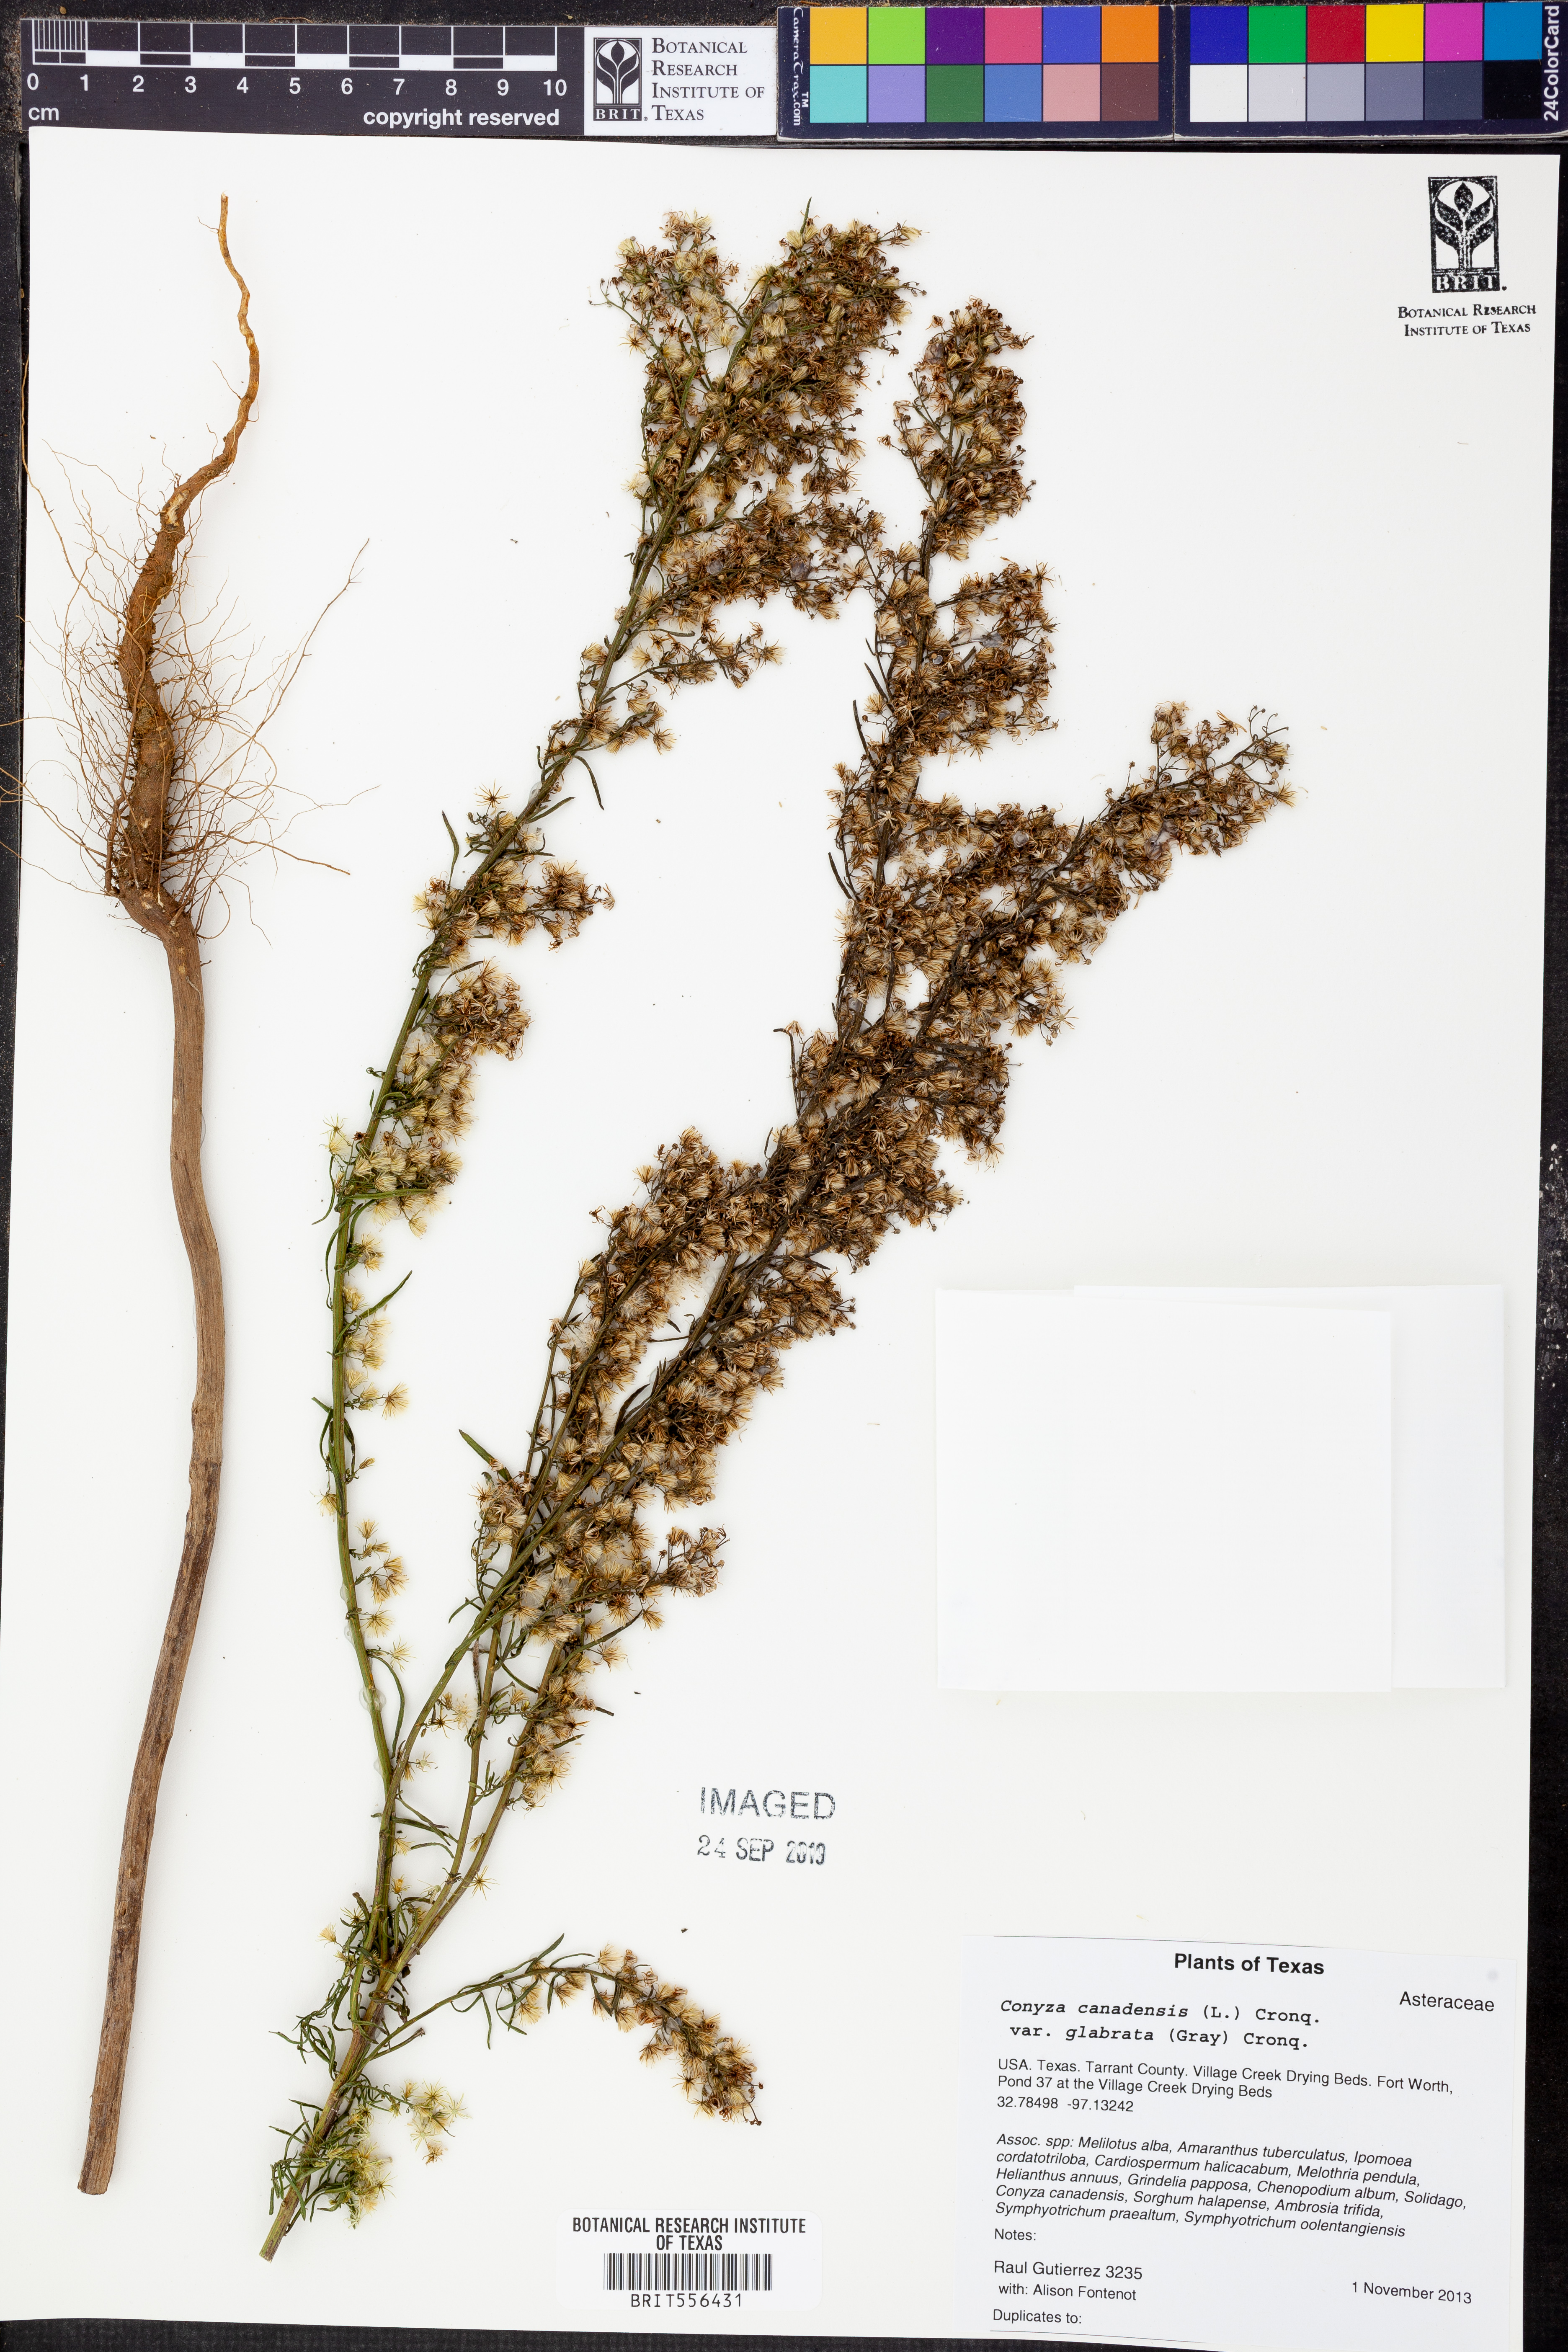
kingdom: Plantae
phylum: Tracheophyta
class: Magnoliopsida
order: Asterales
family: Asteraceae
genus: Erigeron
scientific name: Erigeron canadensis
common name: Canadian fleabane
